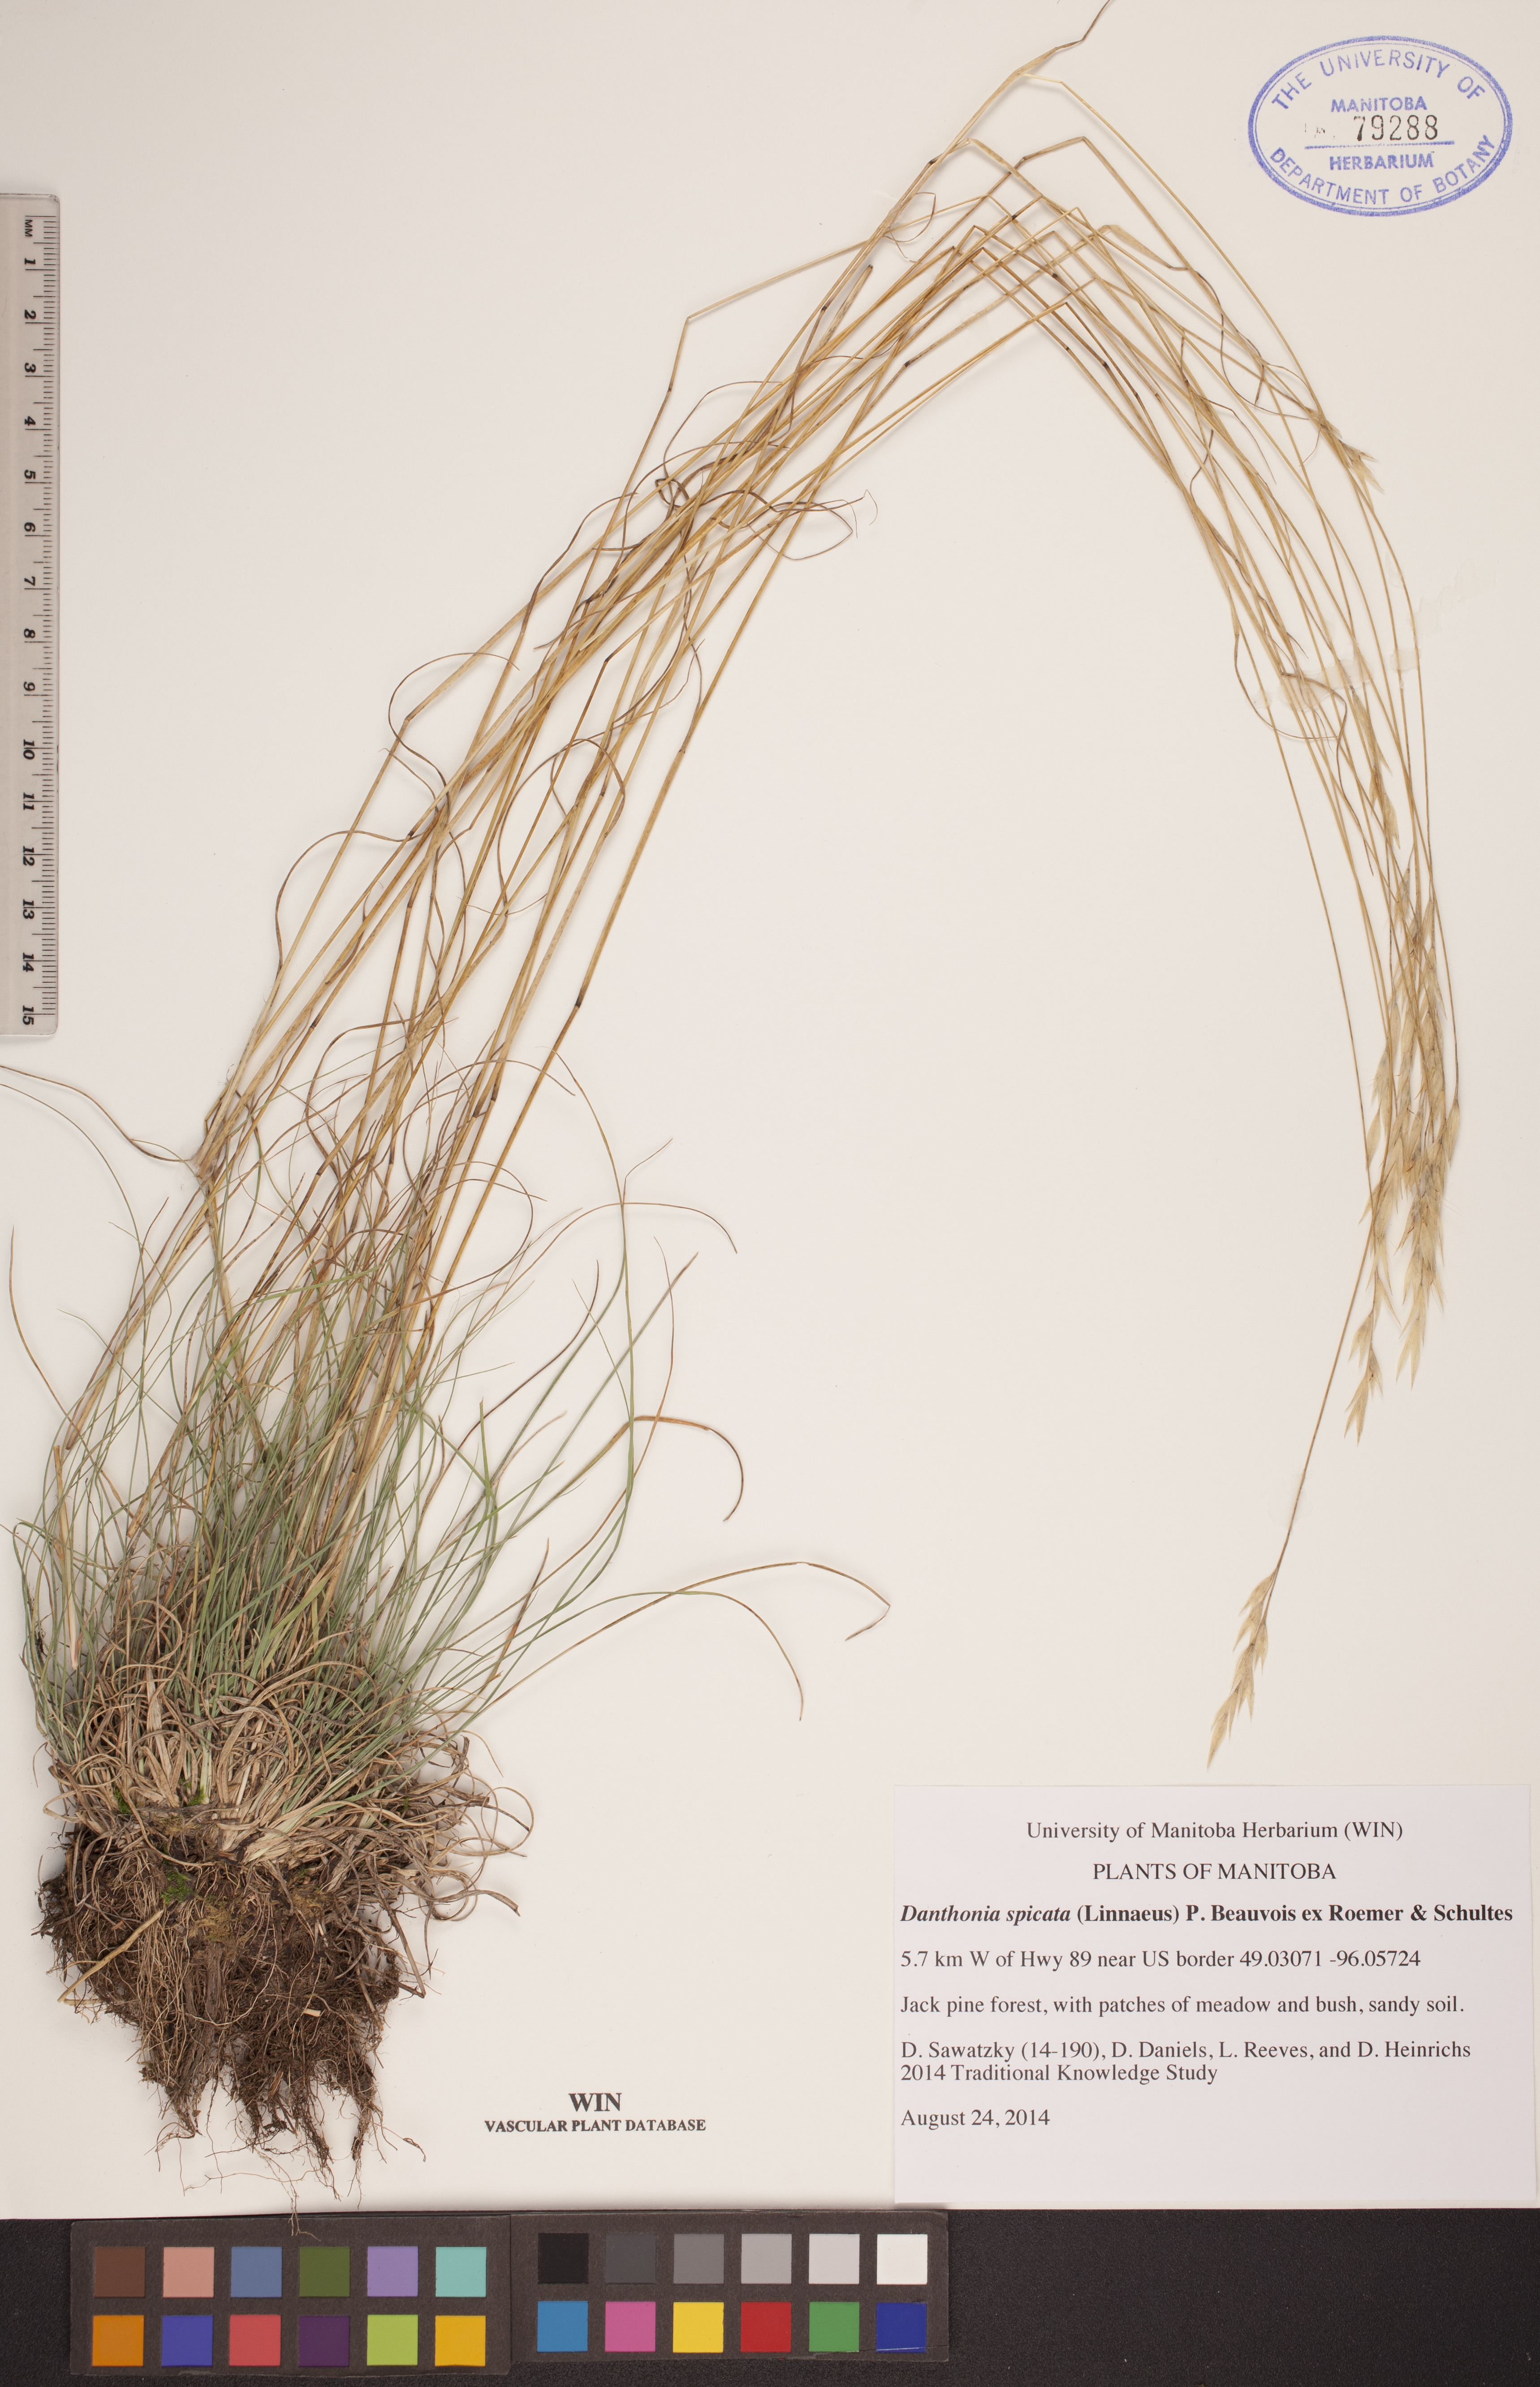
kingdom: Plantae
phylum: Tracheophyta
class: Liliopsida
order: Poales
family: Poaceae
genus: Danthonia
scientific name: Danthonia spicata
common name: Common wild oatgrass
